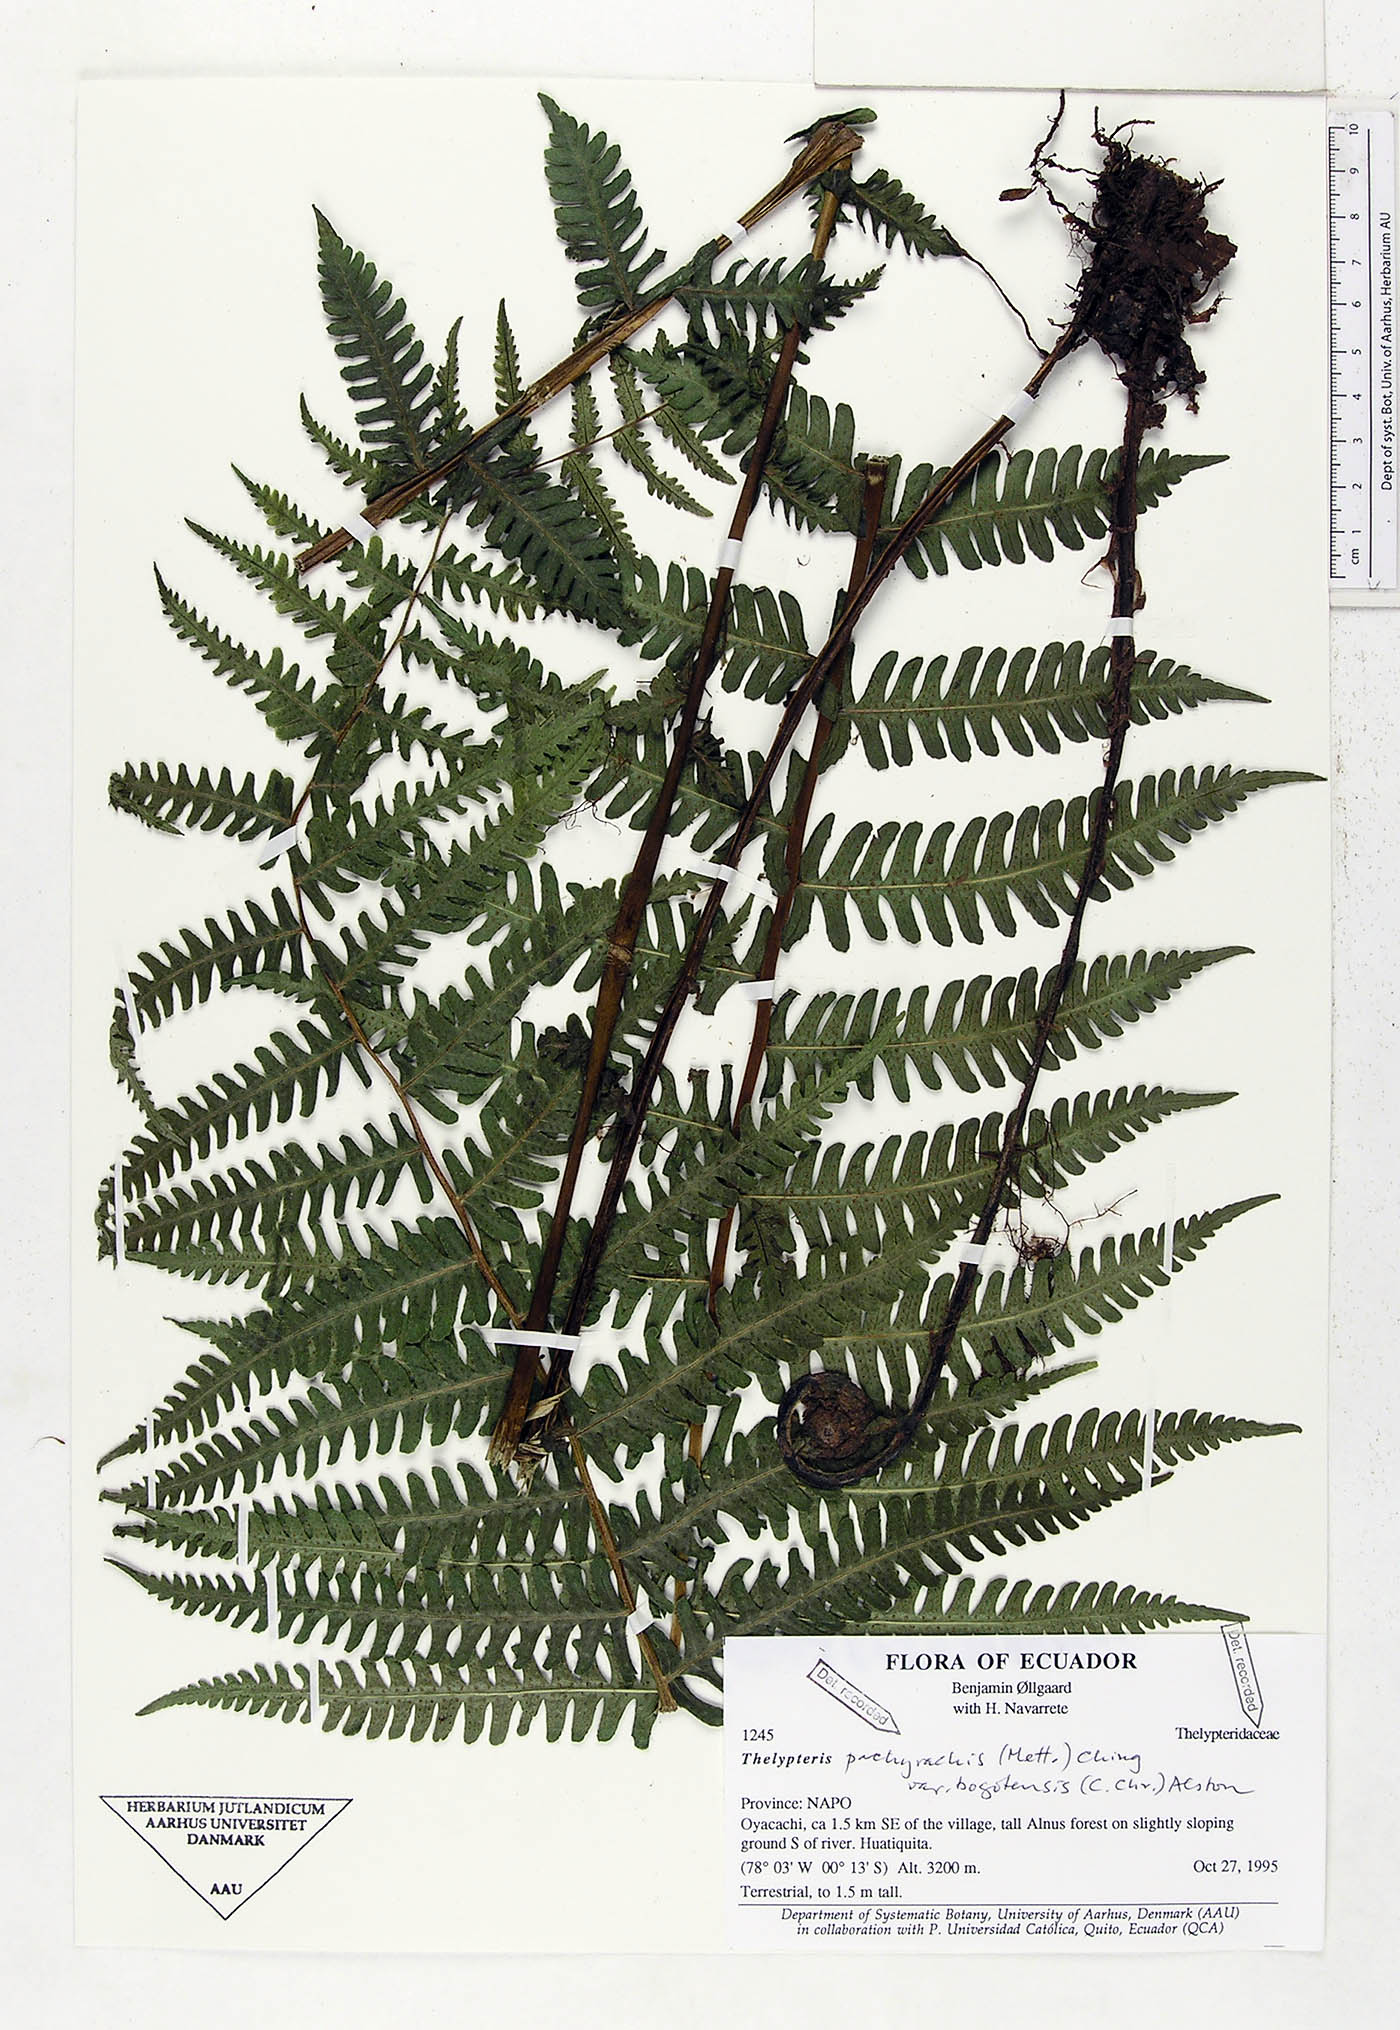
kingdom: Plantae
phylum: Tracheophyta
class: Polypodiopsida
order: Polypodiales
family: Thelypteridaceae
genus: Amauropelta
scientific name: Amauropelta pachyrhachis
